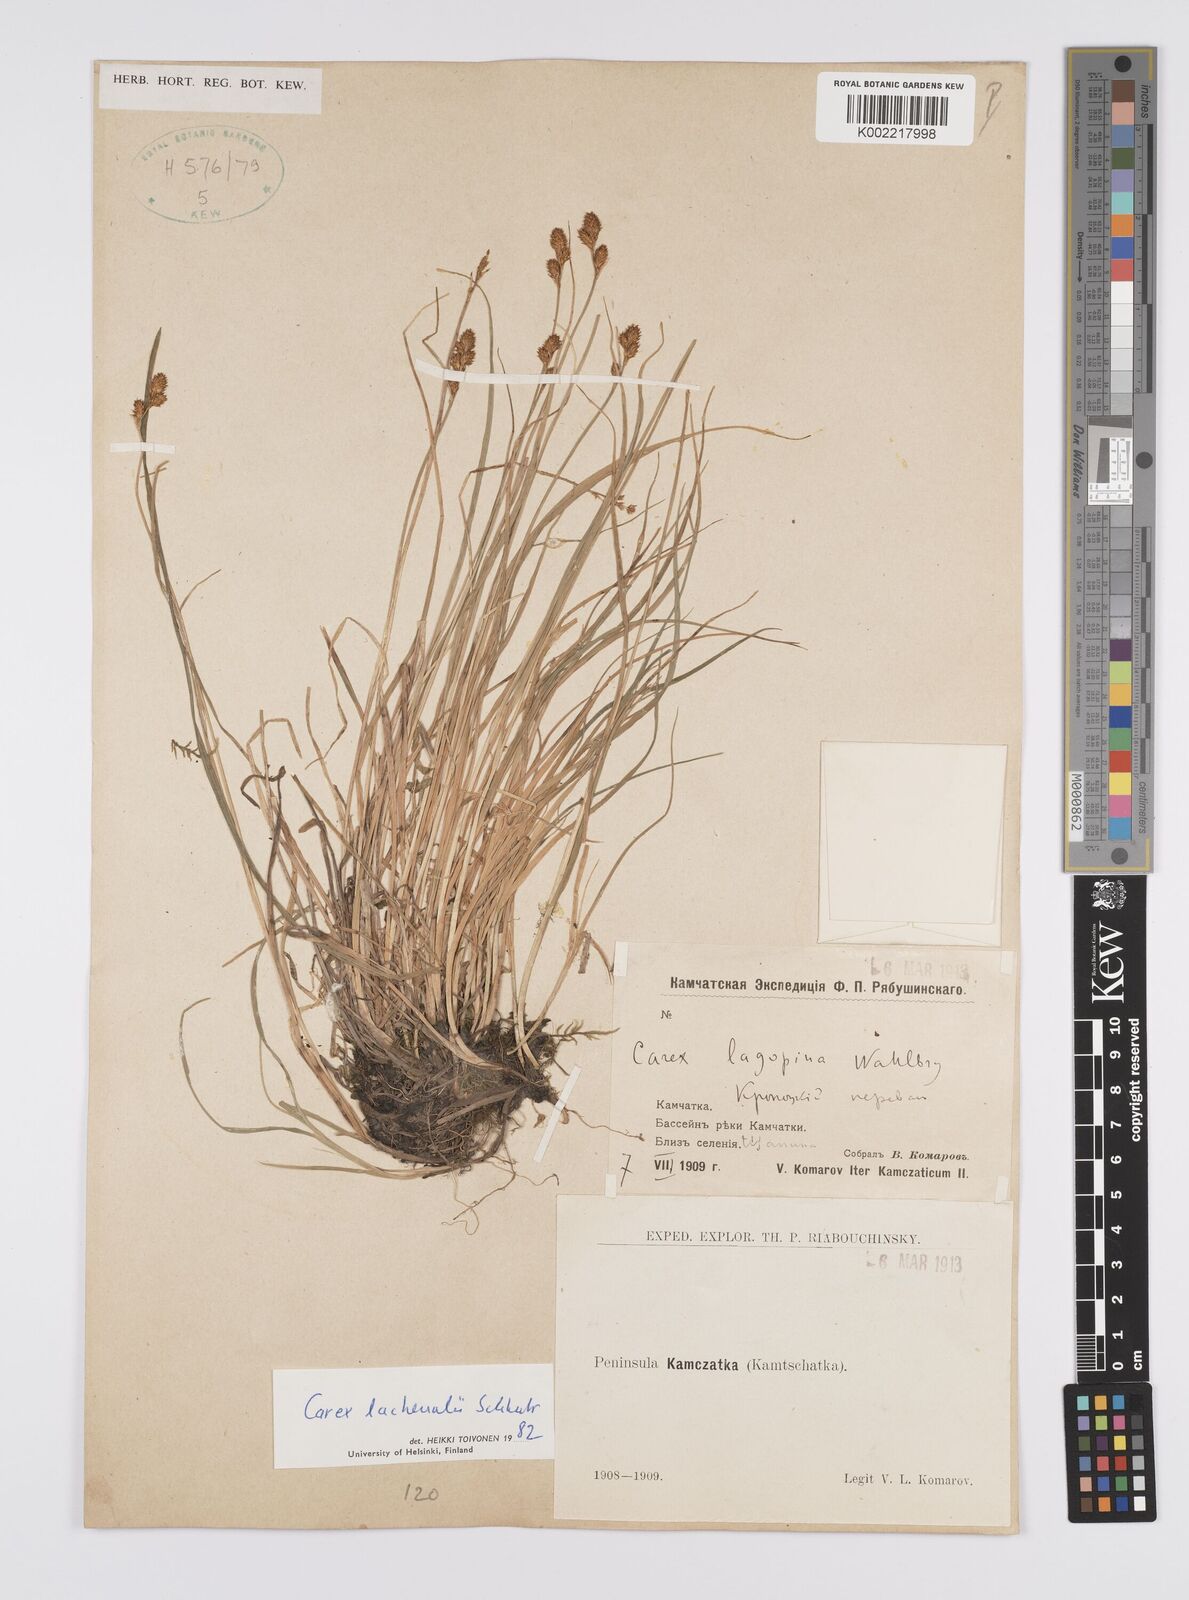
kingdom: Plantae
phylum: Tracheophyta
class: Liliopsida
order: Poales
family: Cyperaceae
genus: Carex
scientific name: Carex lachenalii
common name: Hare's-foot sedge
